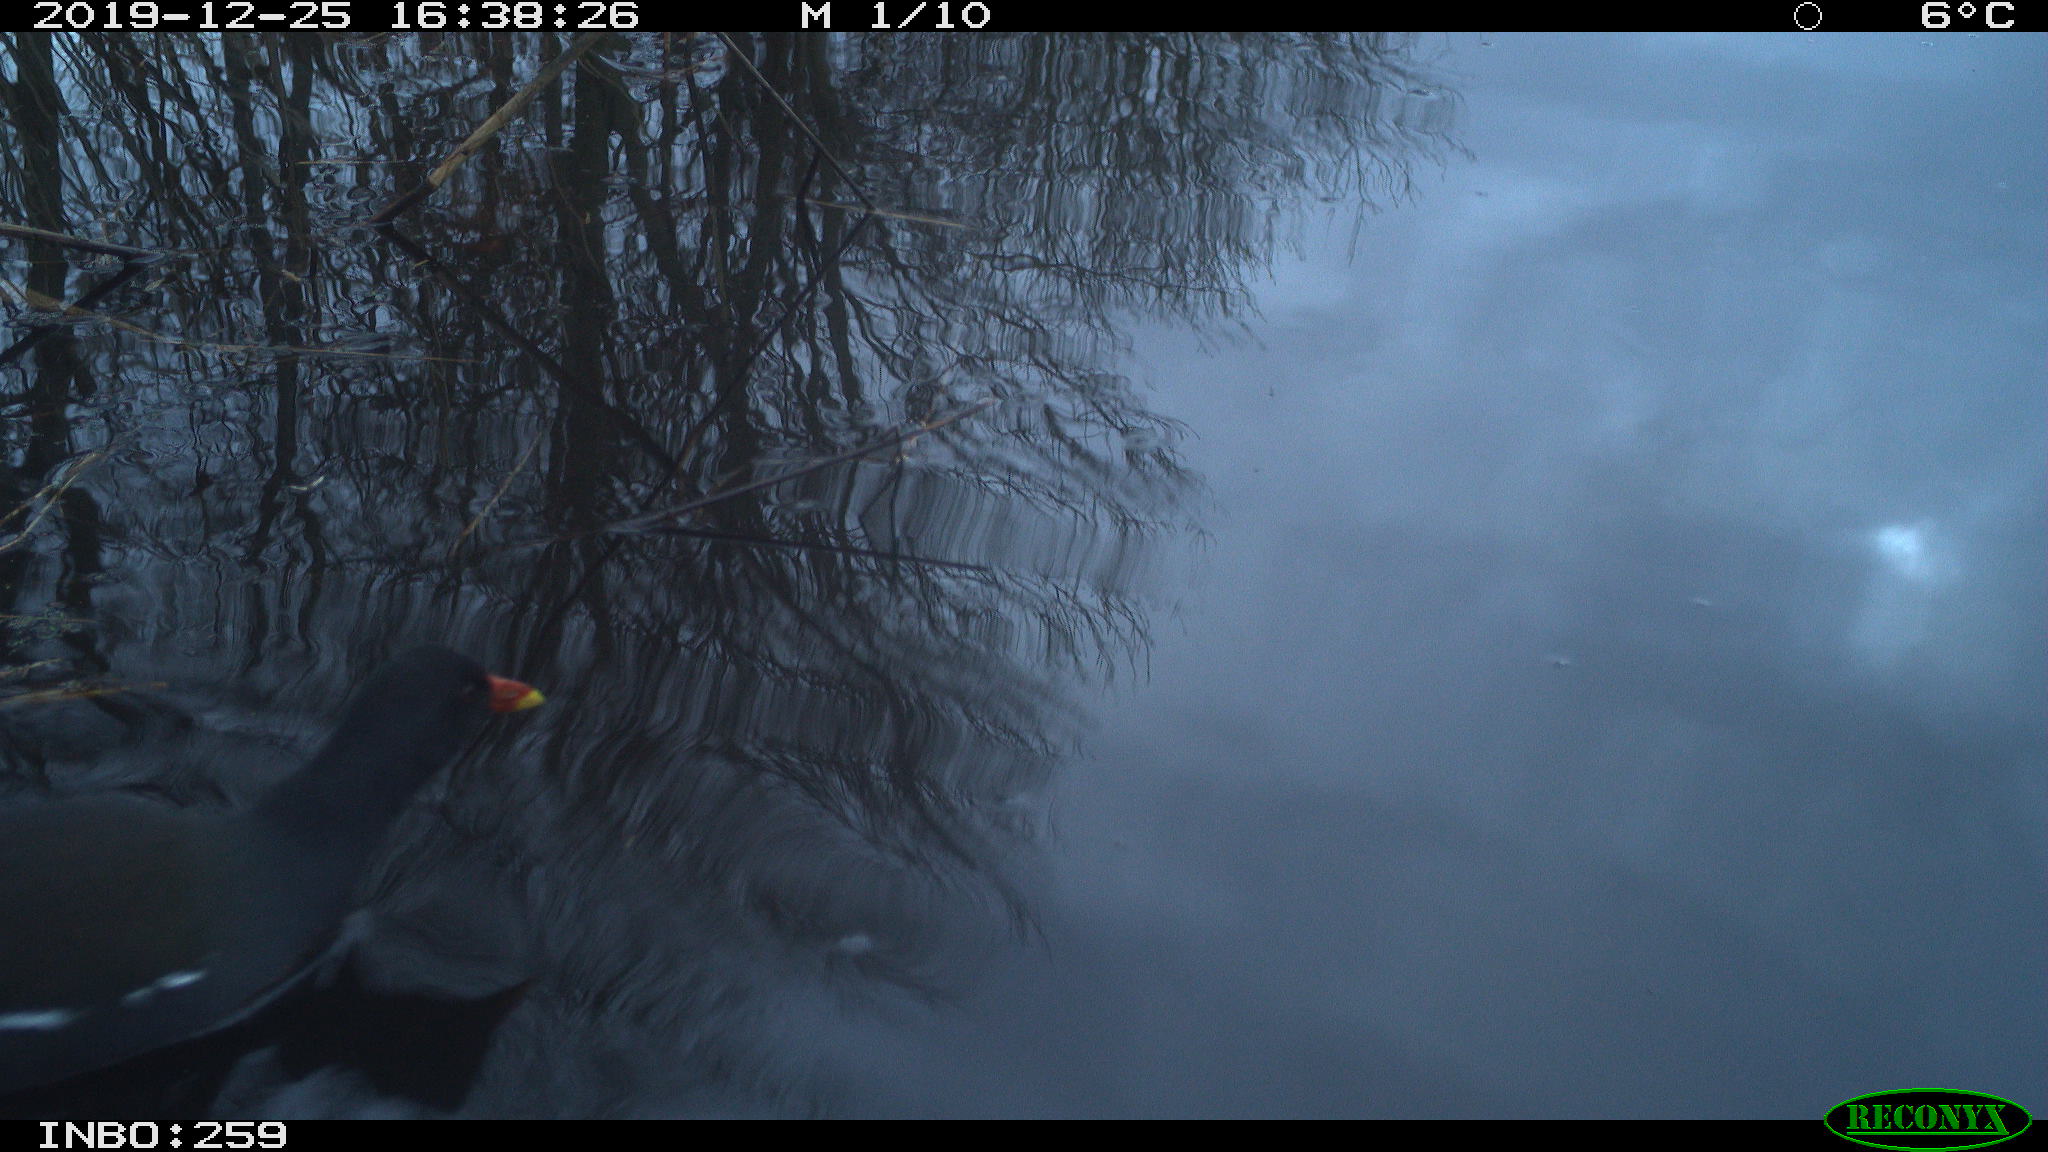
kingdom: Animalia
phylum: Chordata
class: Aves
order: Gruiformes
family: Rallidae
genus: Gallinula
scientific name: Gallinula chloropus
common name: Common moorhen
